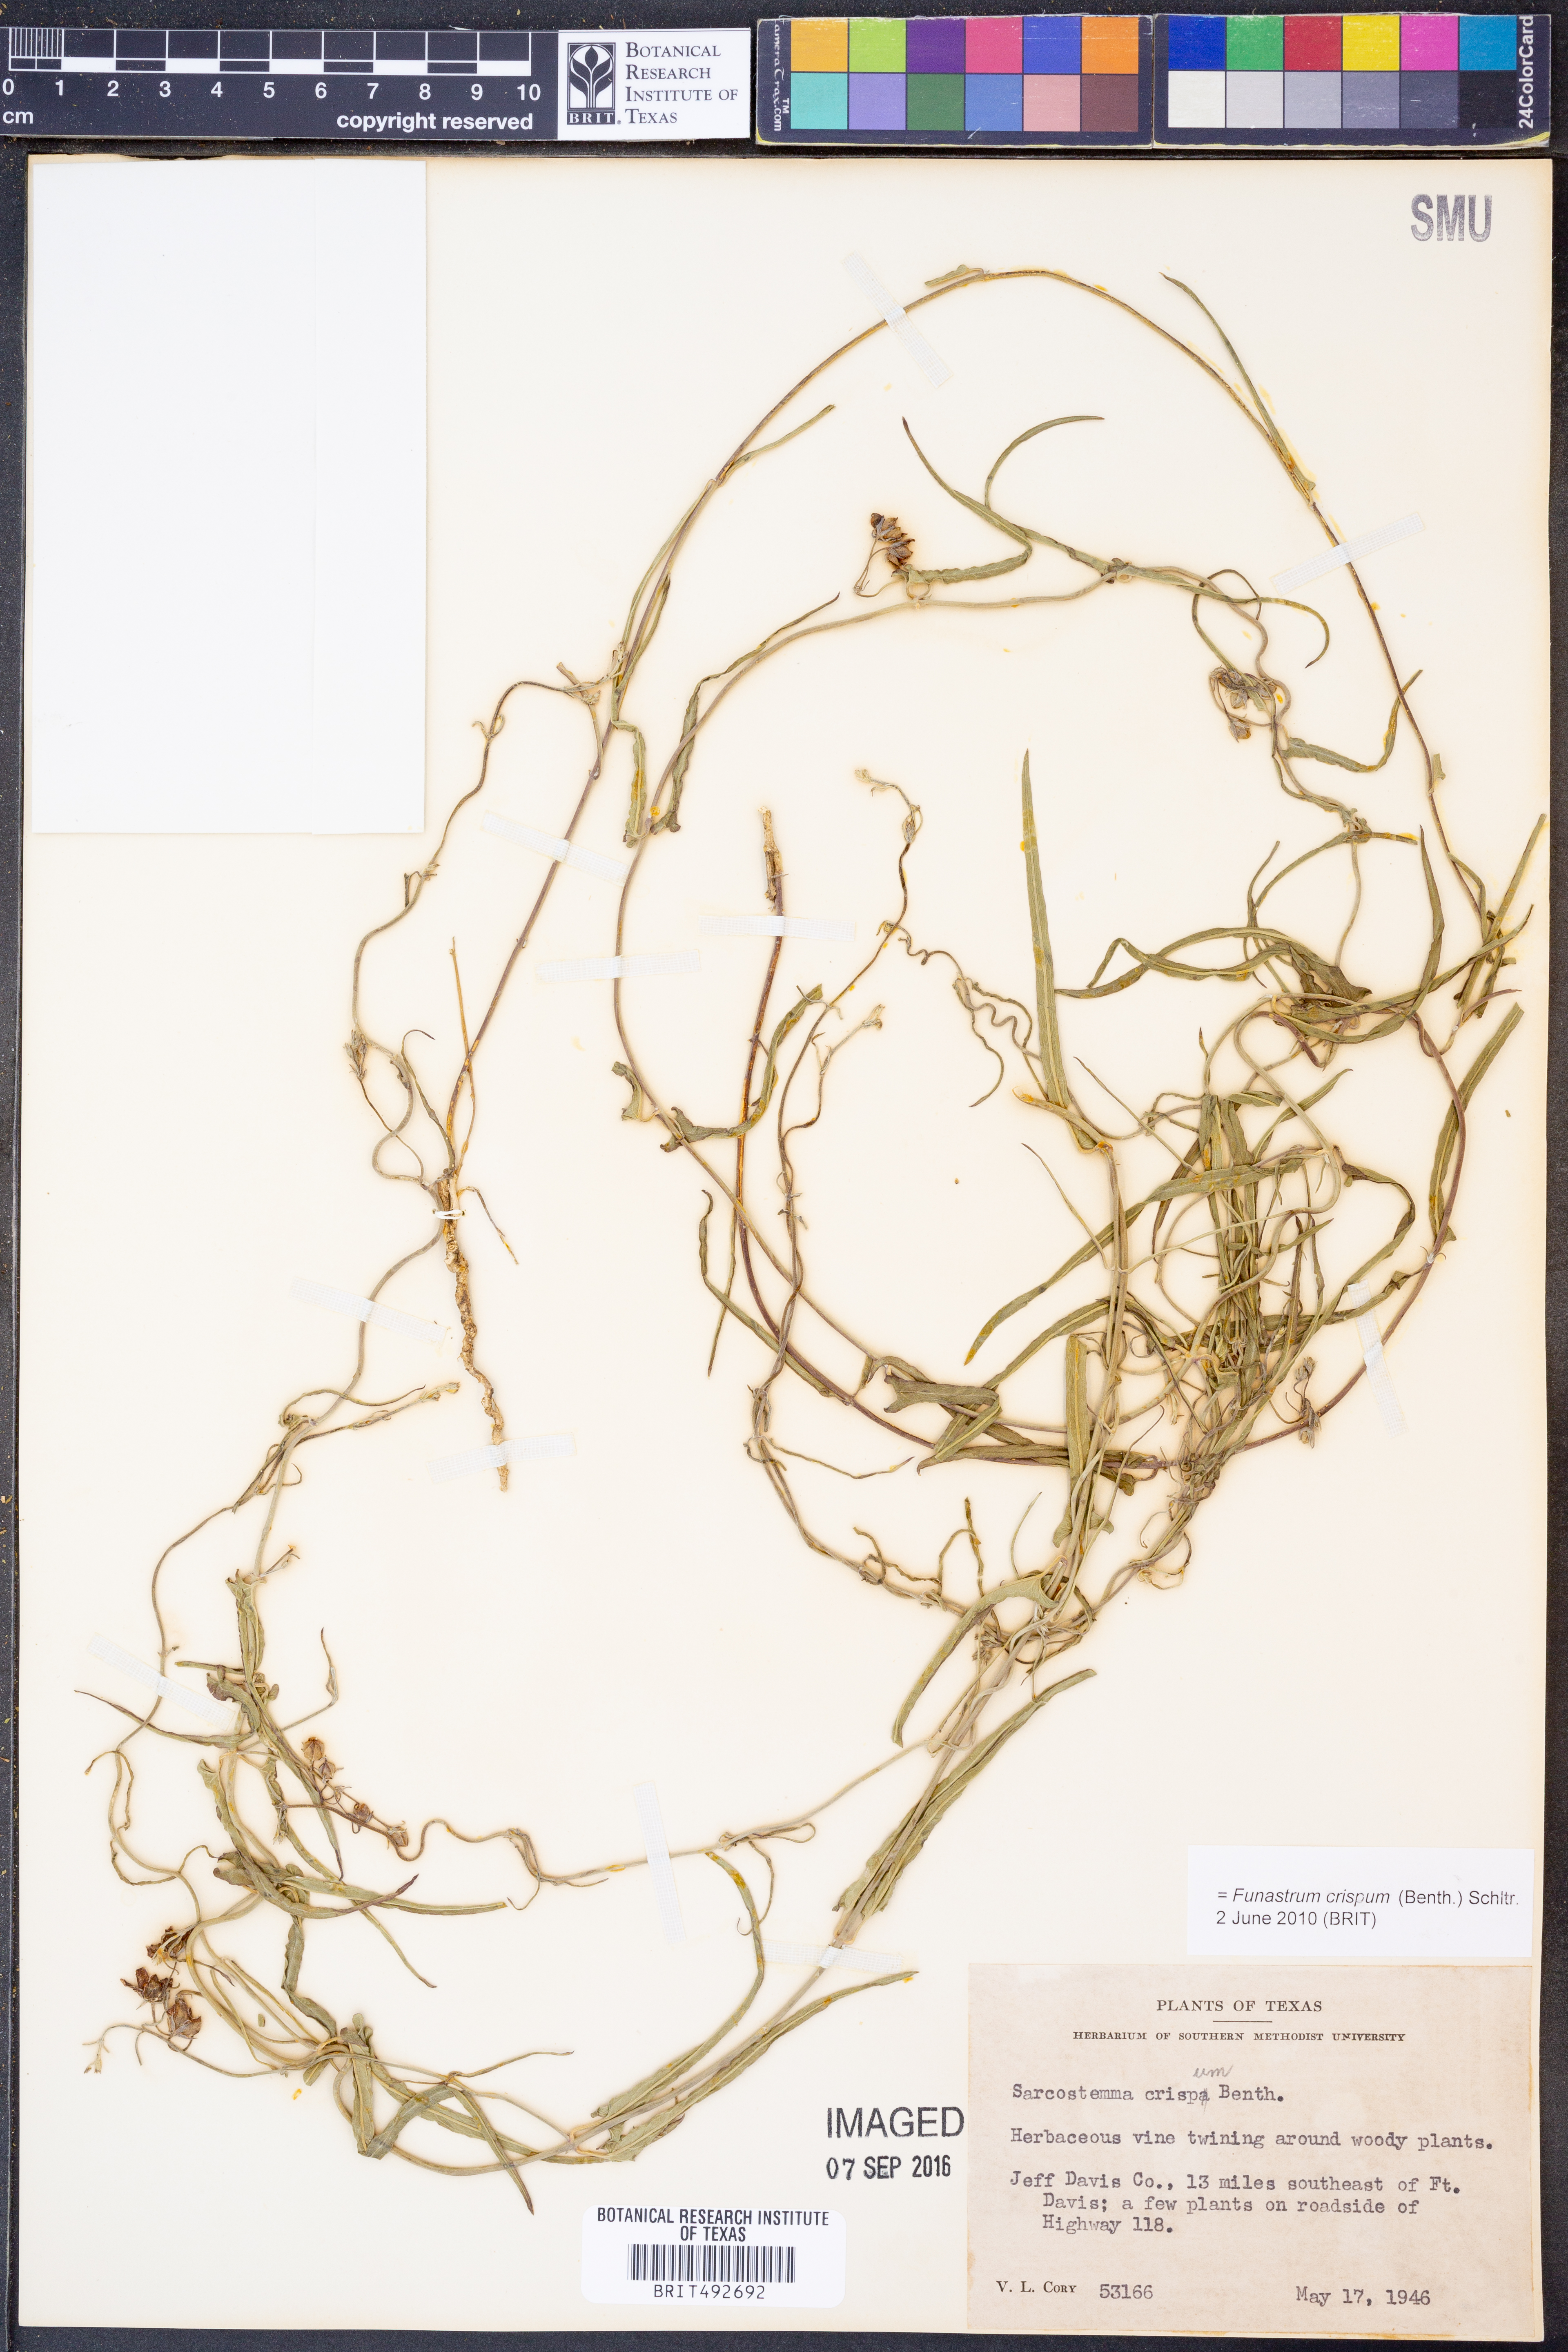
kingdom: Plantae
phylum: Tracheophyta
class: Magnoliopsida
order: Gentianales
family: Apocynaceae
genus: Funastrum
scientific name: Funastrum crispum
